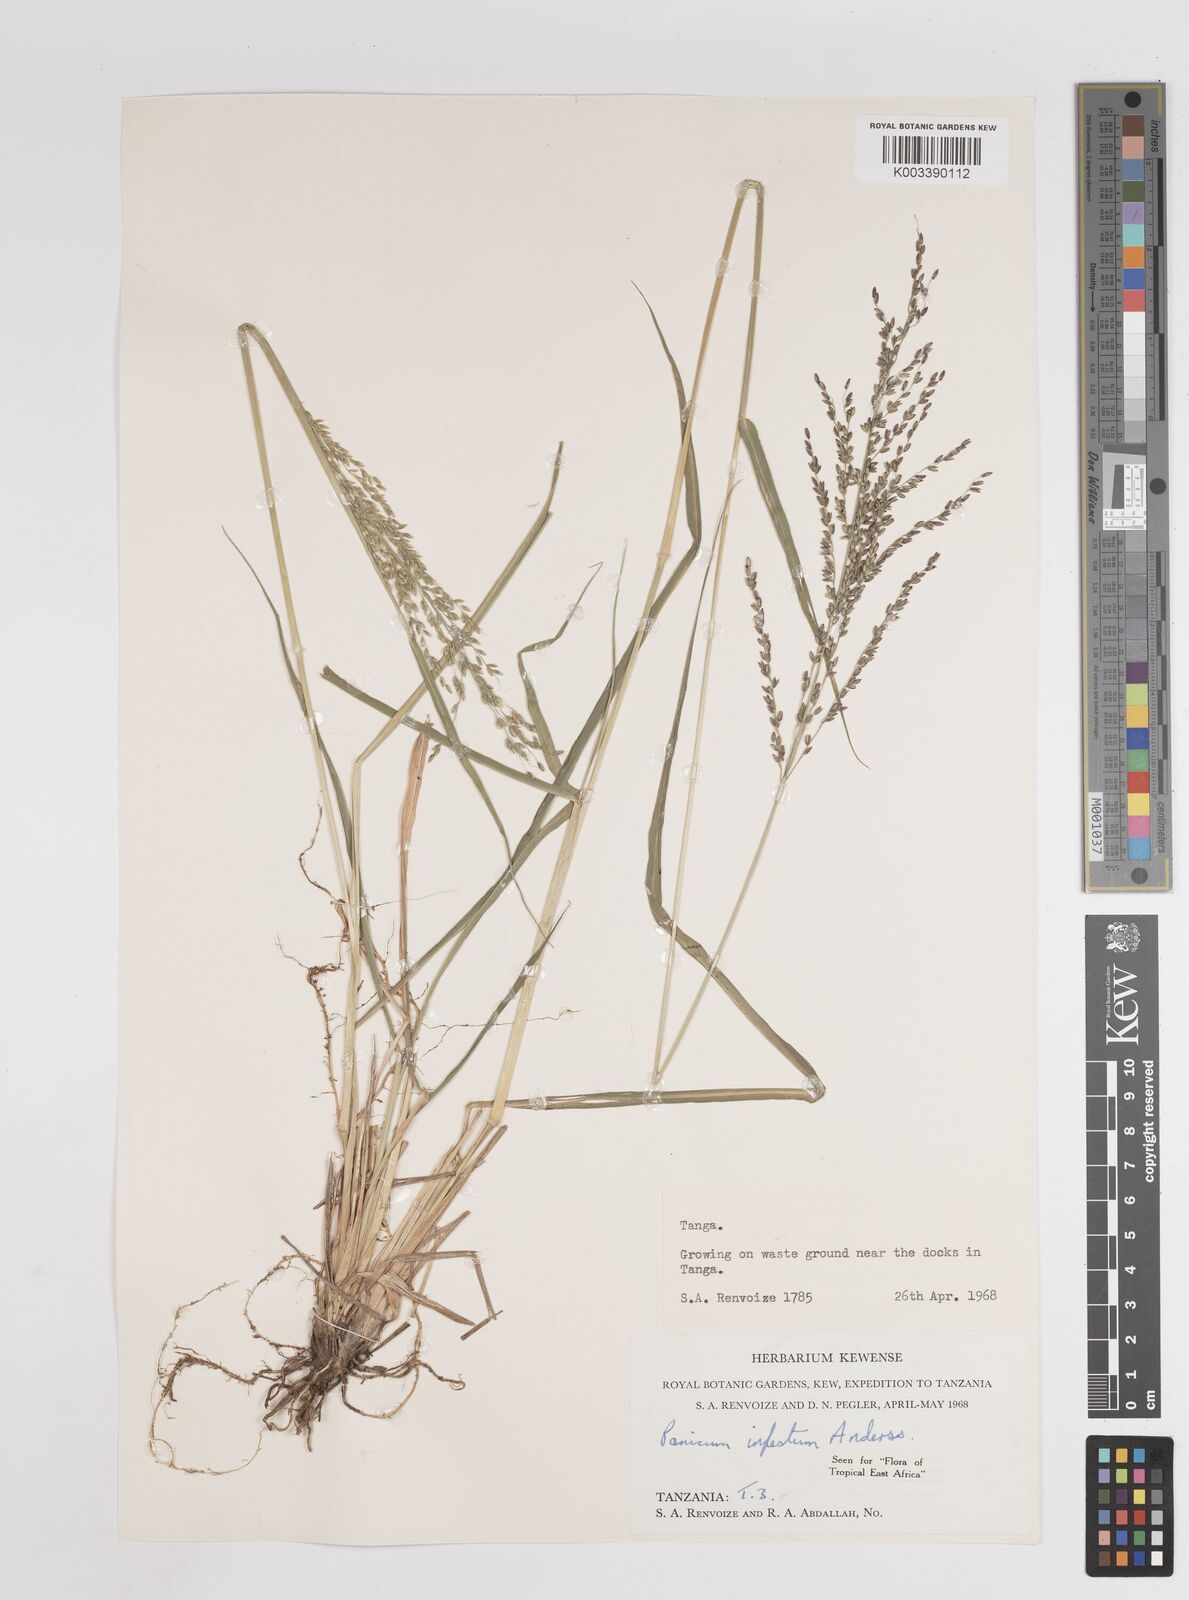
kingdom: Plantae
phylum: Tracheophyta
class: Liliopsida
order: Poales
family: Poaceae
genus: Megathyrsus
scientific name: Megathyrsus infestus
